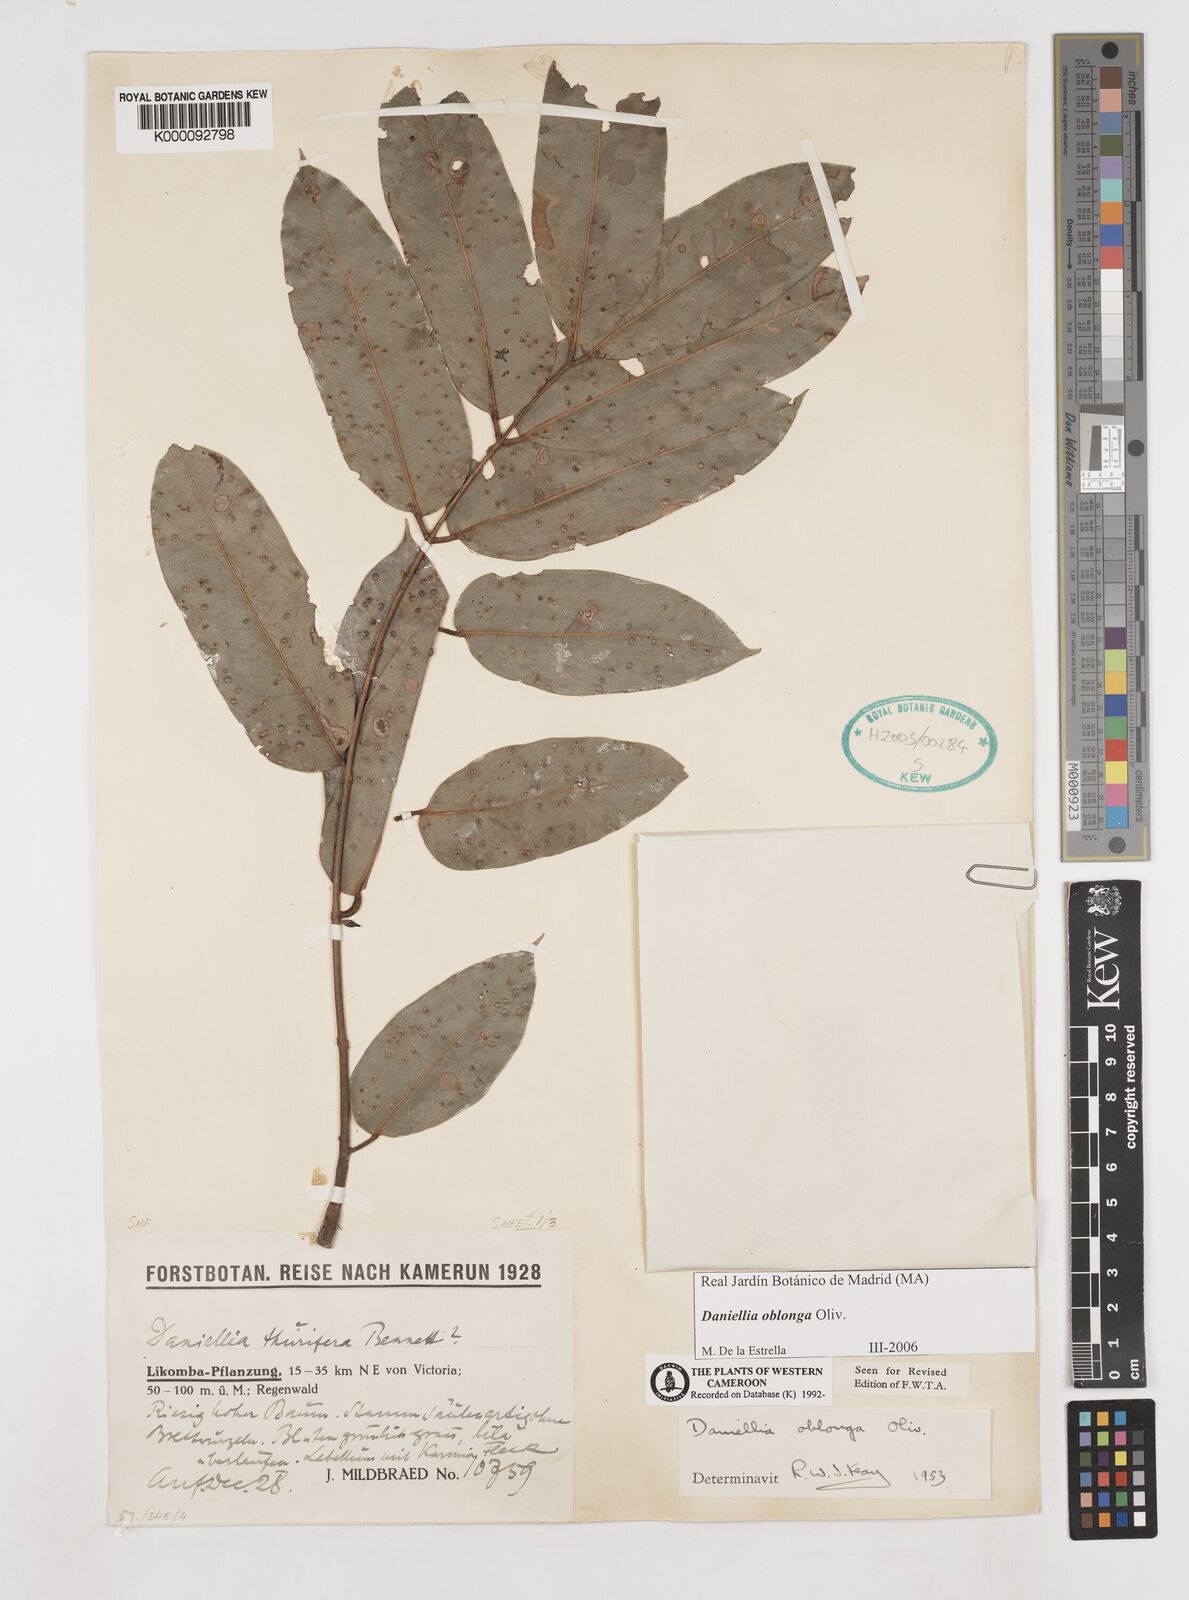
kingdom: Plantae
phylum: Tracheophyta
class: Magnoliopsida
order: Fabales
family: Fabaceae
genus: Daniellia
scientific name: Daniellia oblonga
